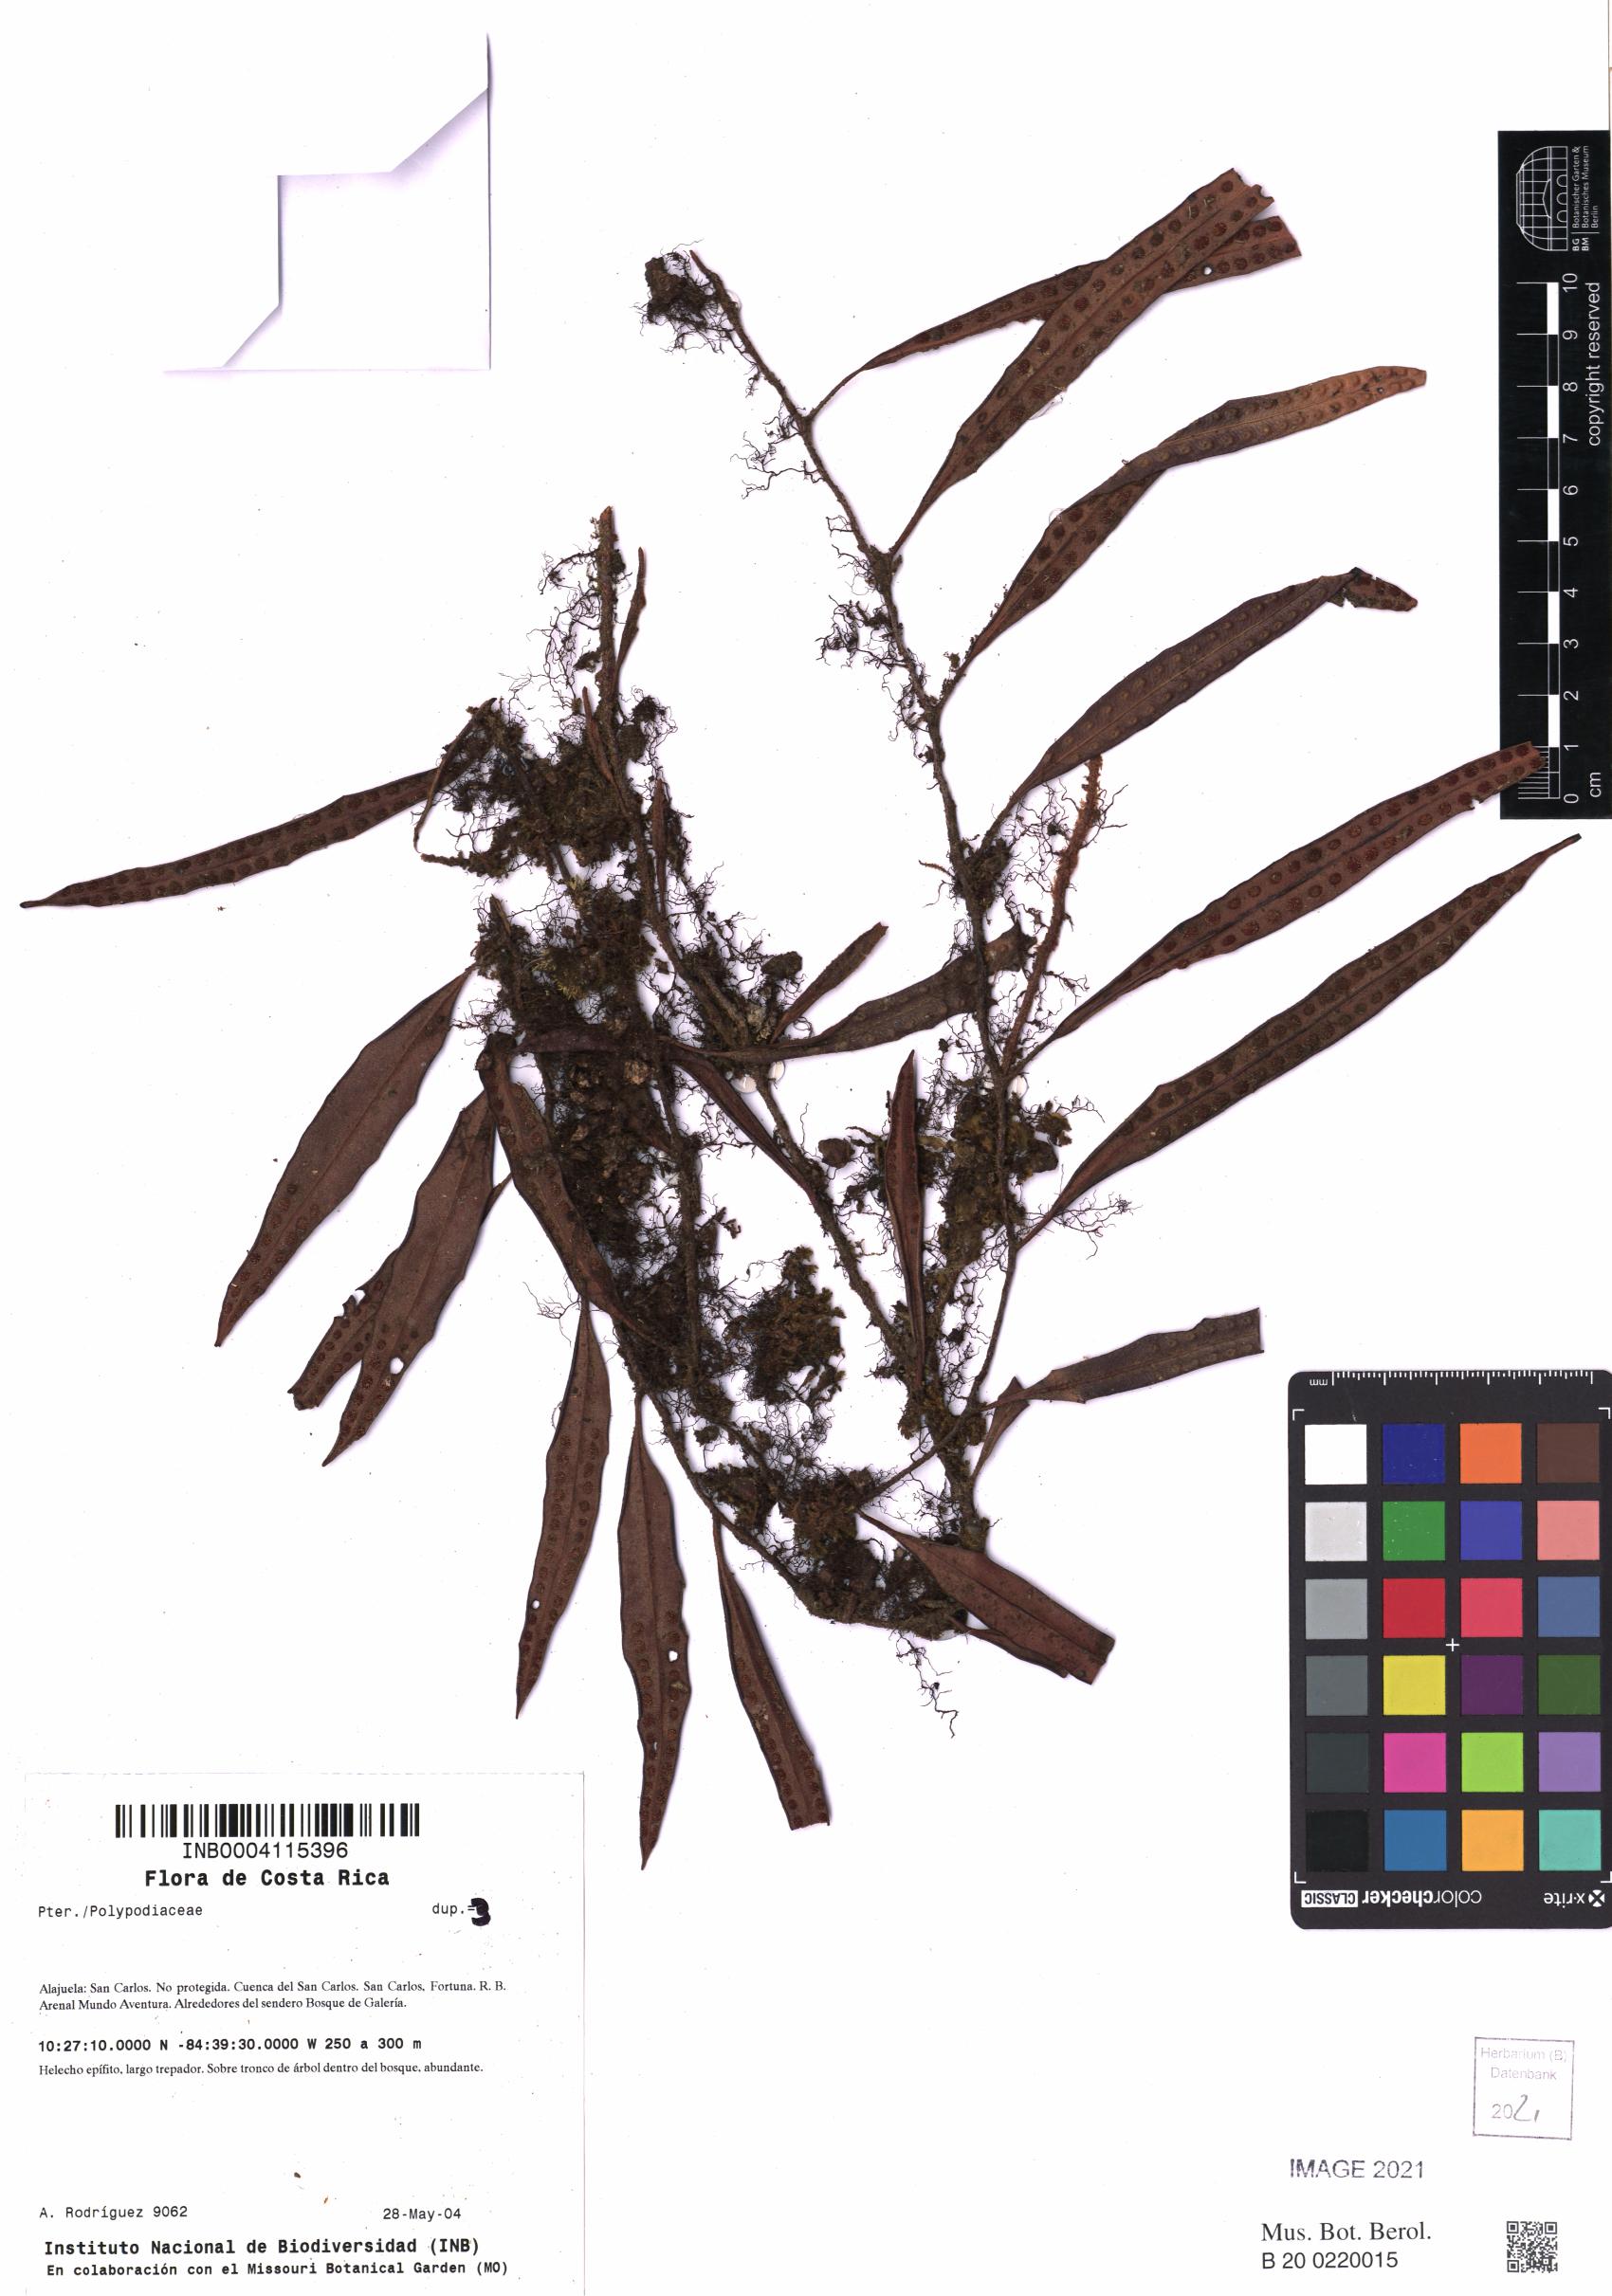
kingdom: Plantae
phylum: Tracheophyta
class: Polypodiopsida
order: Polypodiales
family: Polypodiaceae
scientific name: Polypodiaceae
